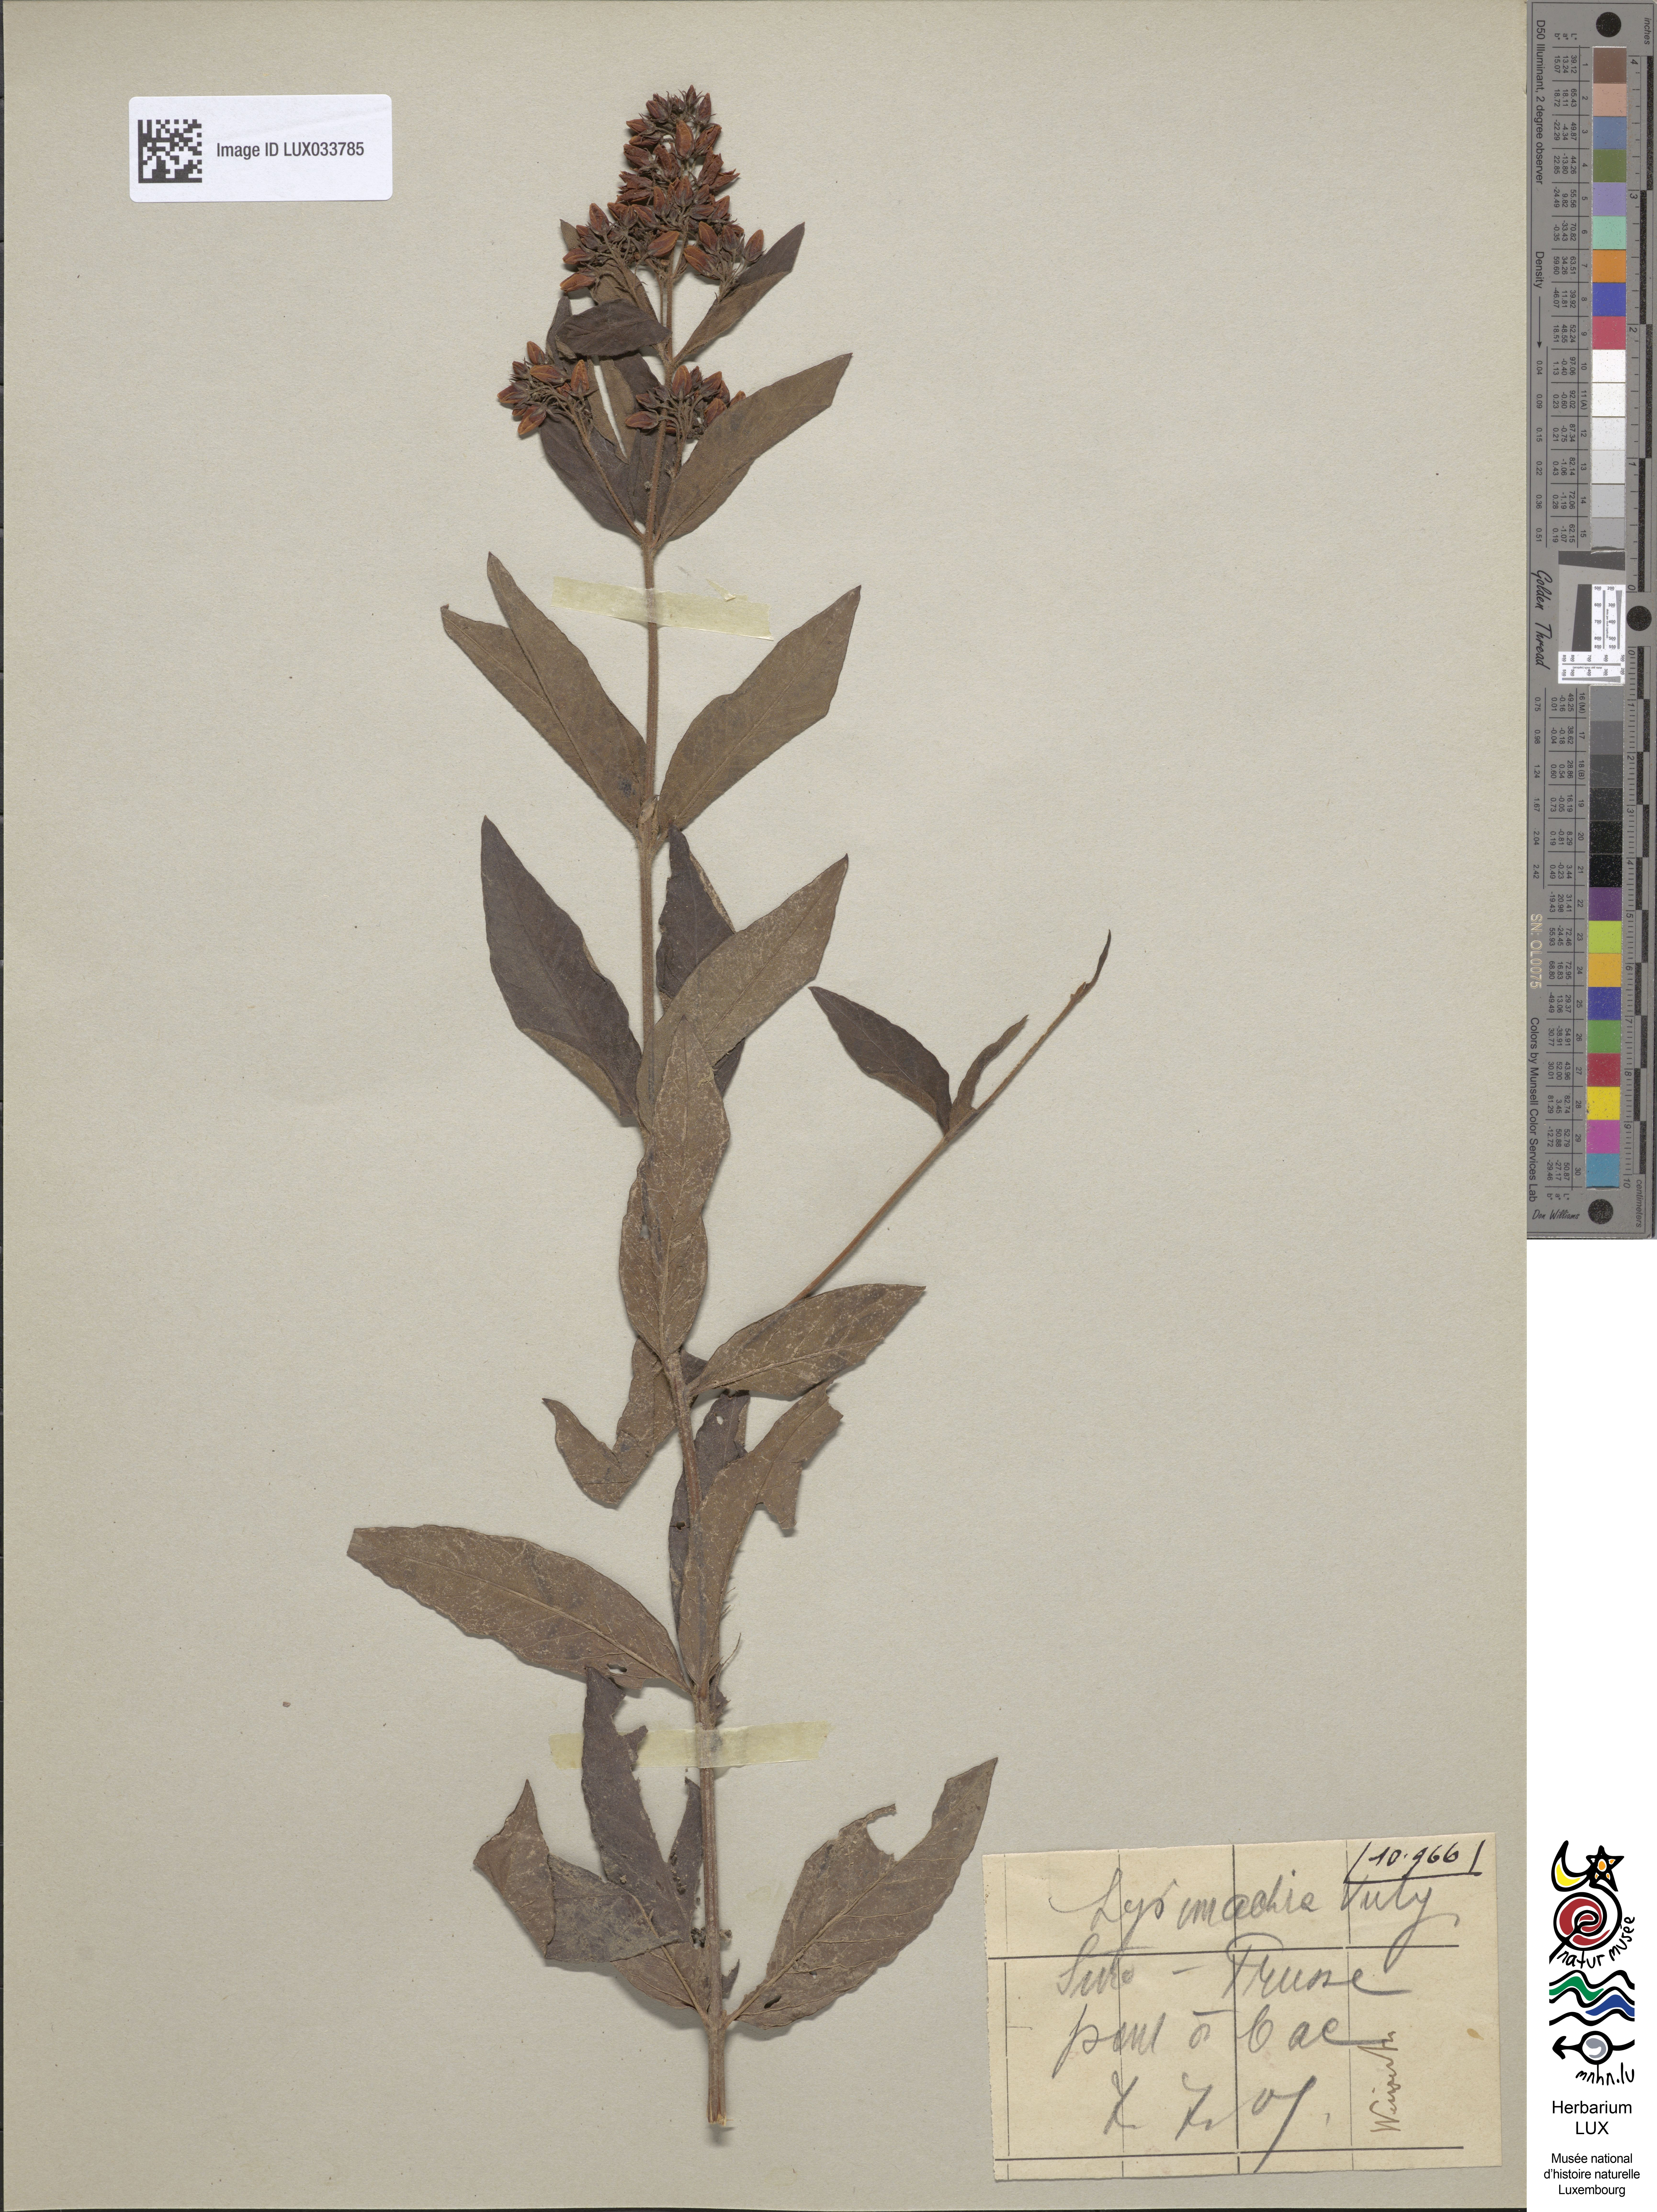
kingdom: Plantae
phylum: Tracheophyta
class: Magnoliopsida
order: Ericales
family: Primulaceae
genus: Lysimachia
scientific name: Lysimachia vulgaris
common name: Yellow loosestrife
